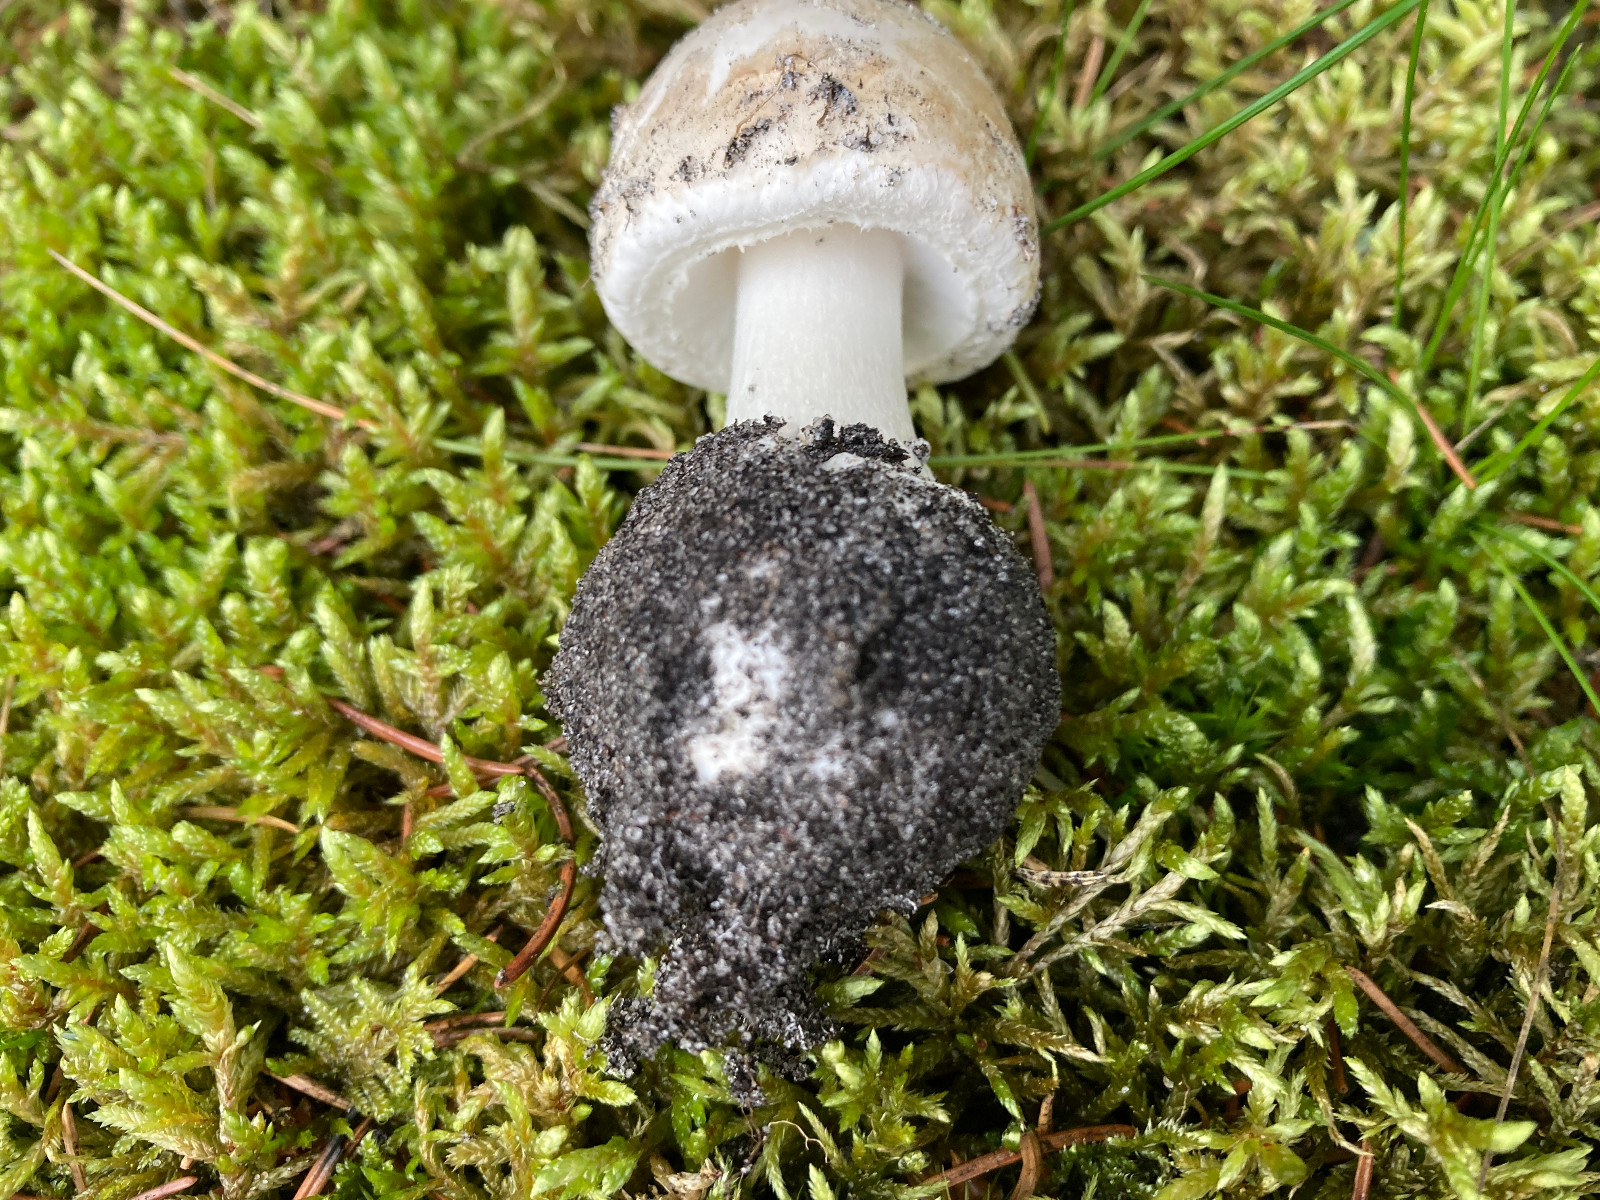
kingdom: Fungi
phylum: Basidiomycota
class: Agaricomycetes
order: Agaricales
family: Amanitaceae
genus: Amanita
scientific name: Amanita
